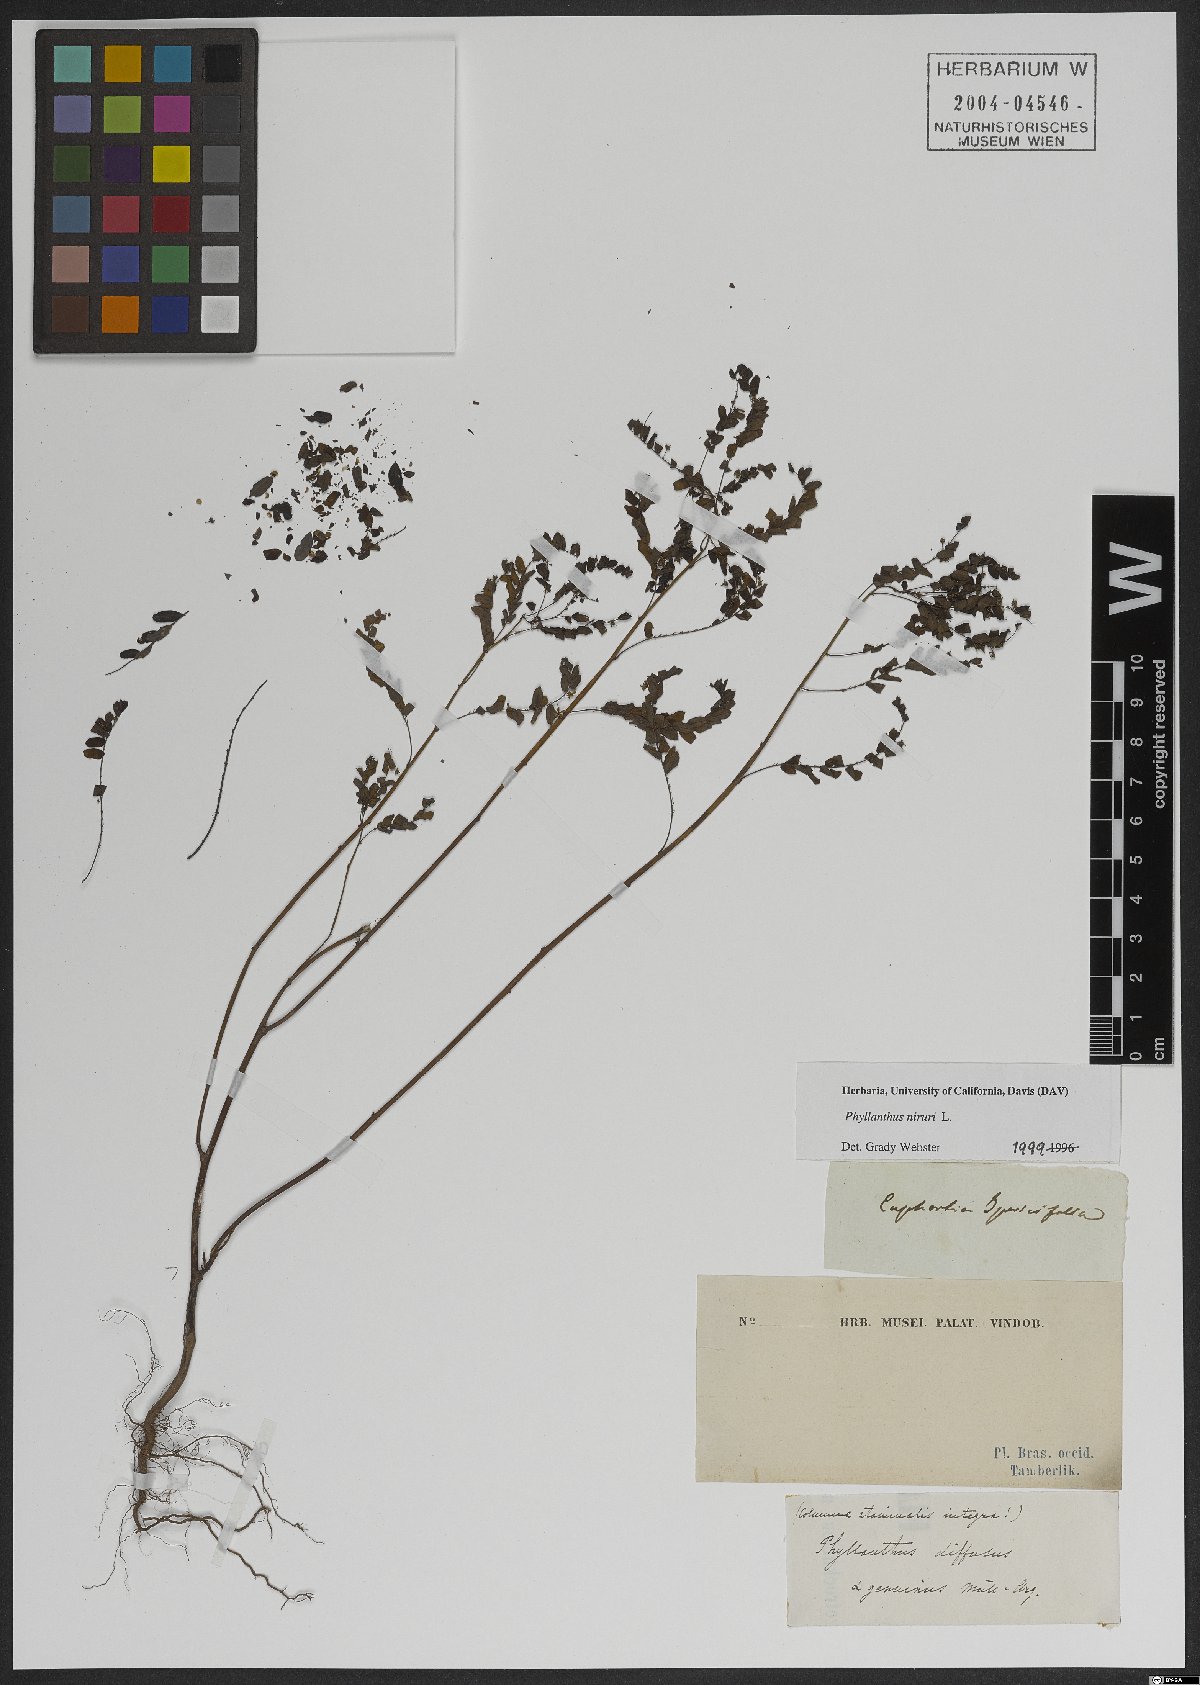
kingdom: Plantae
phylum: Tracheophyta
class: Magnoliopsida
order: Malpighiales
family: Phyllanthaceae
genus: Phyllanthus
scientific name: Phyllanthus niruri
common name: Niruri
